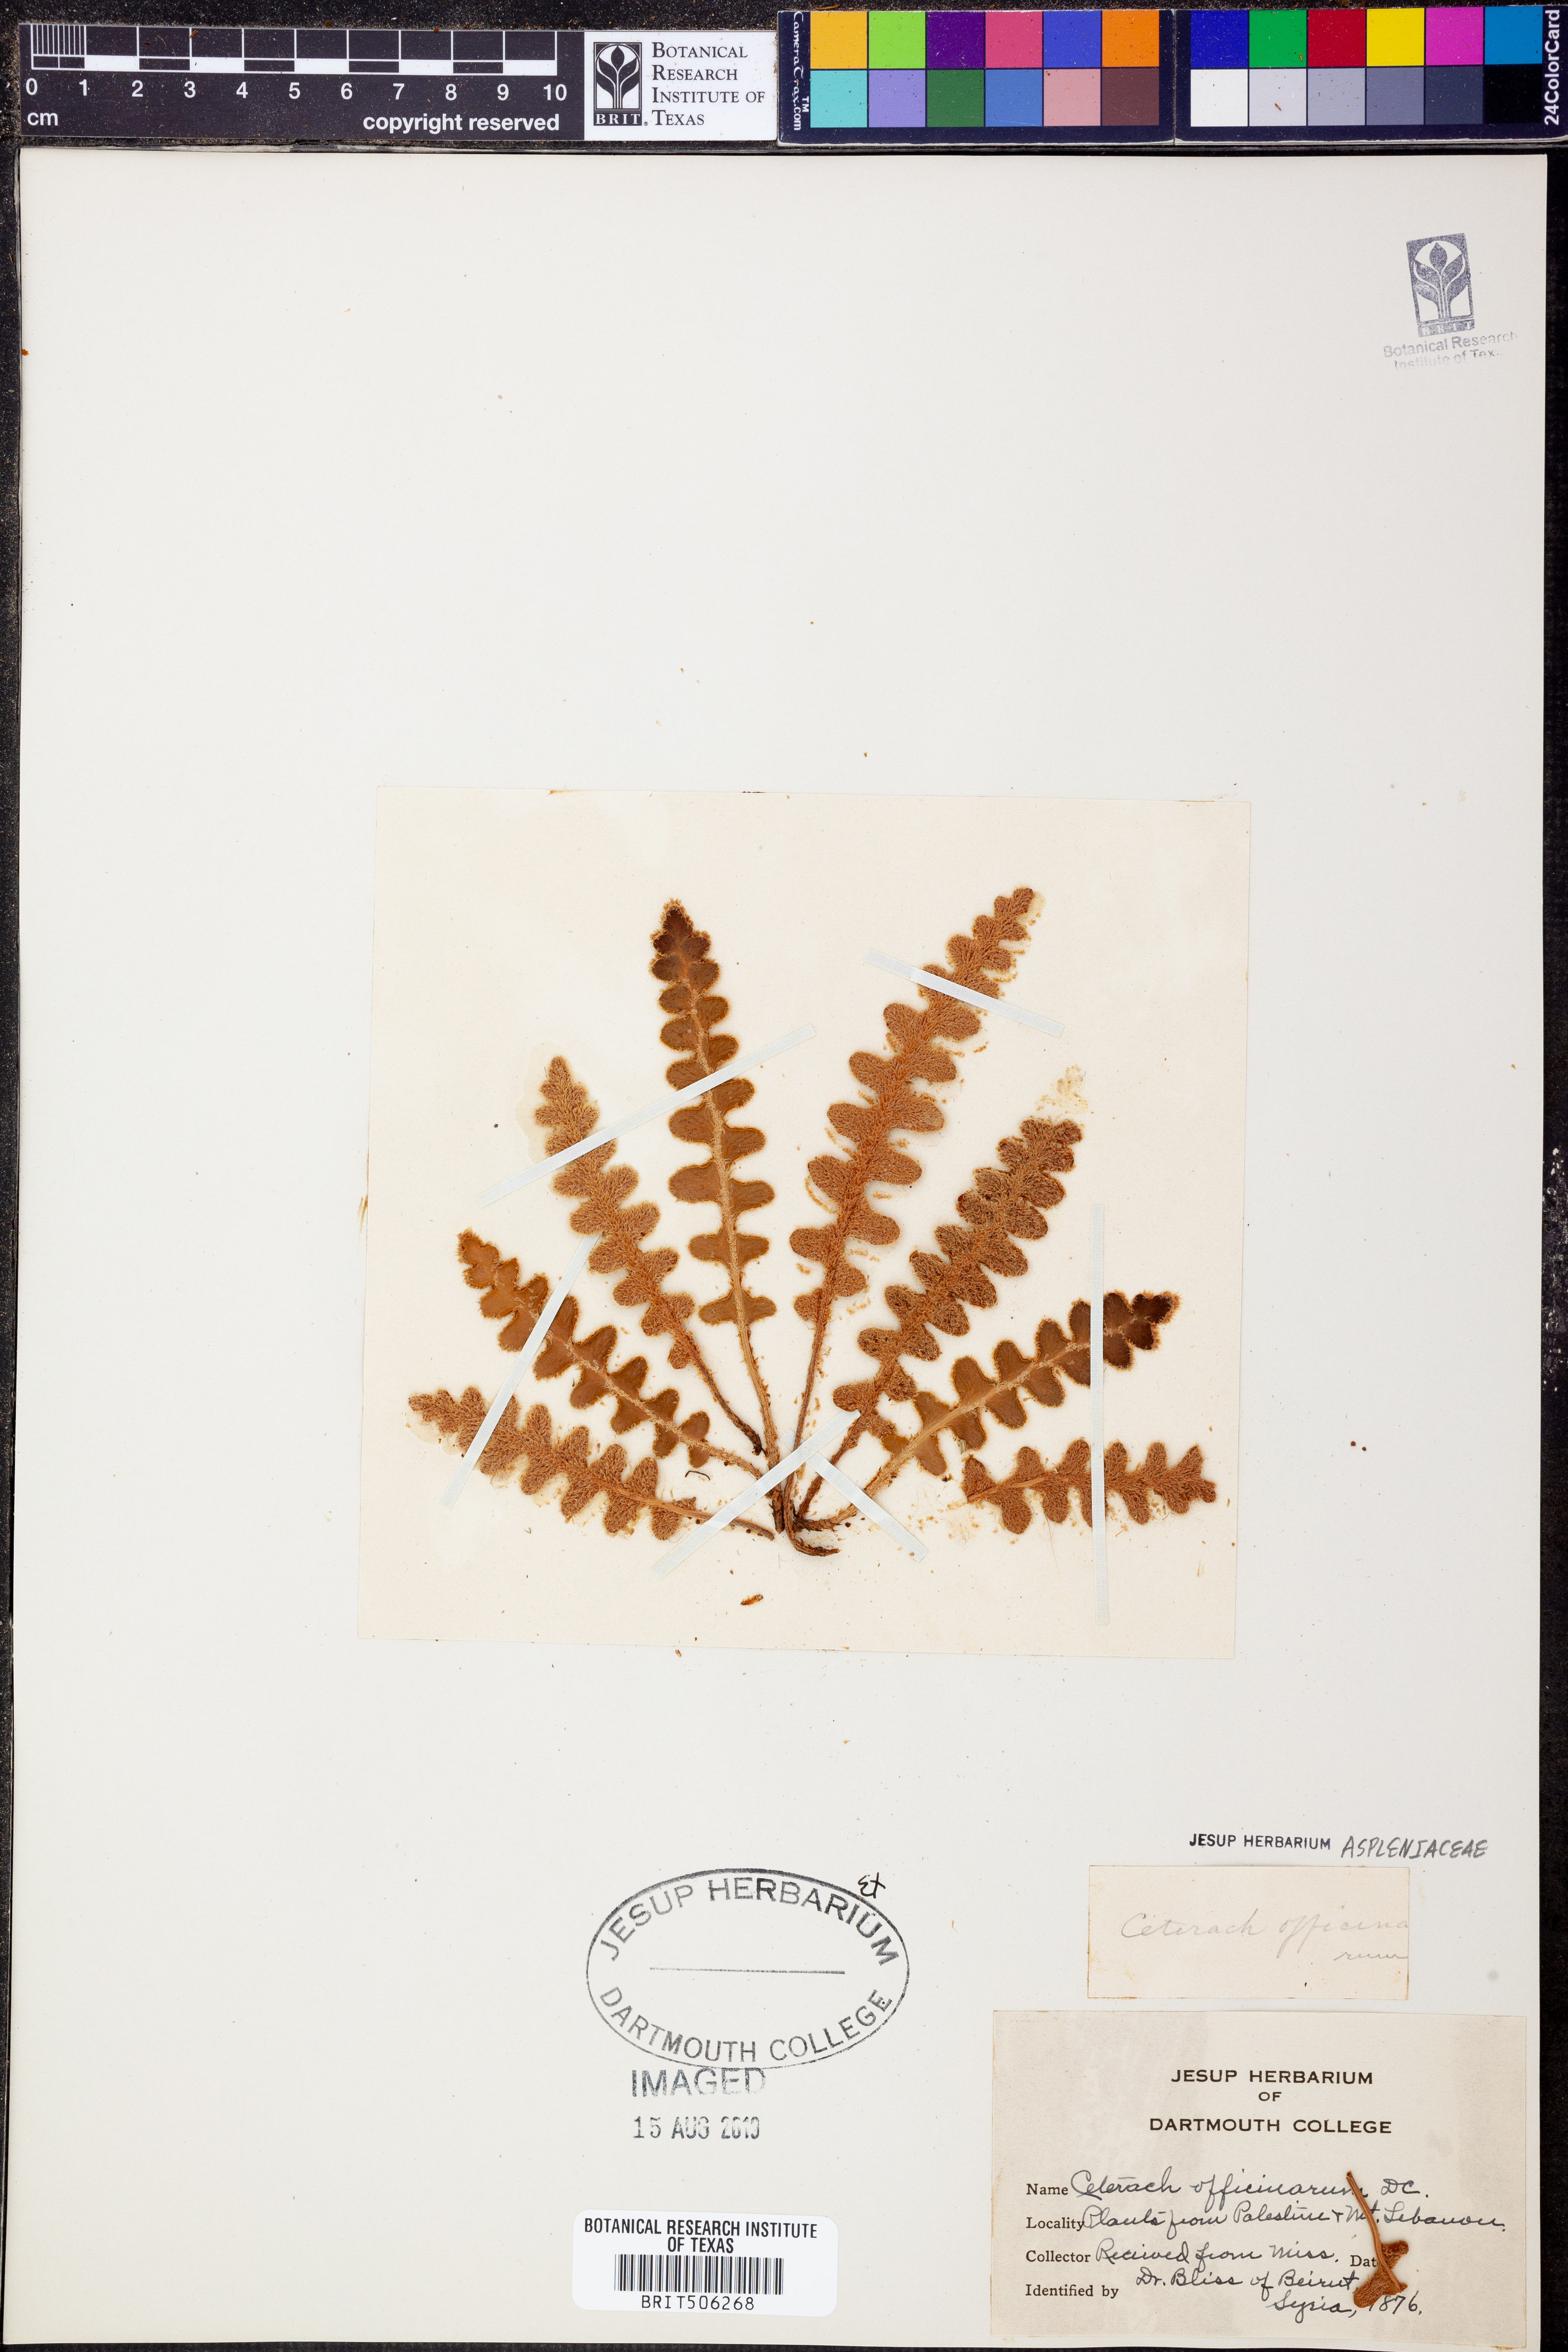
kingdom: Plantae
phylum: Tracheophyta
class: Polypodiopsida
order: Polypodiales
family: Aspleniaceae
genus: Asplenium
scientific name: Asplenium ceterach
